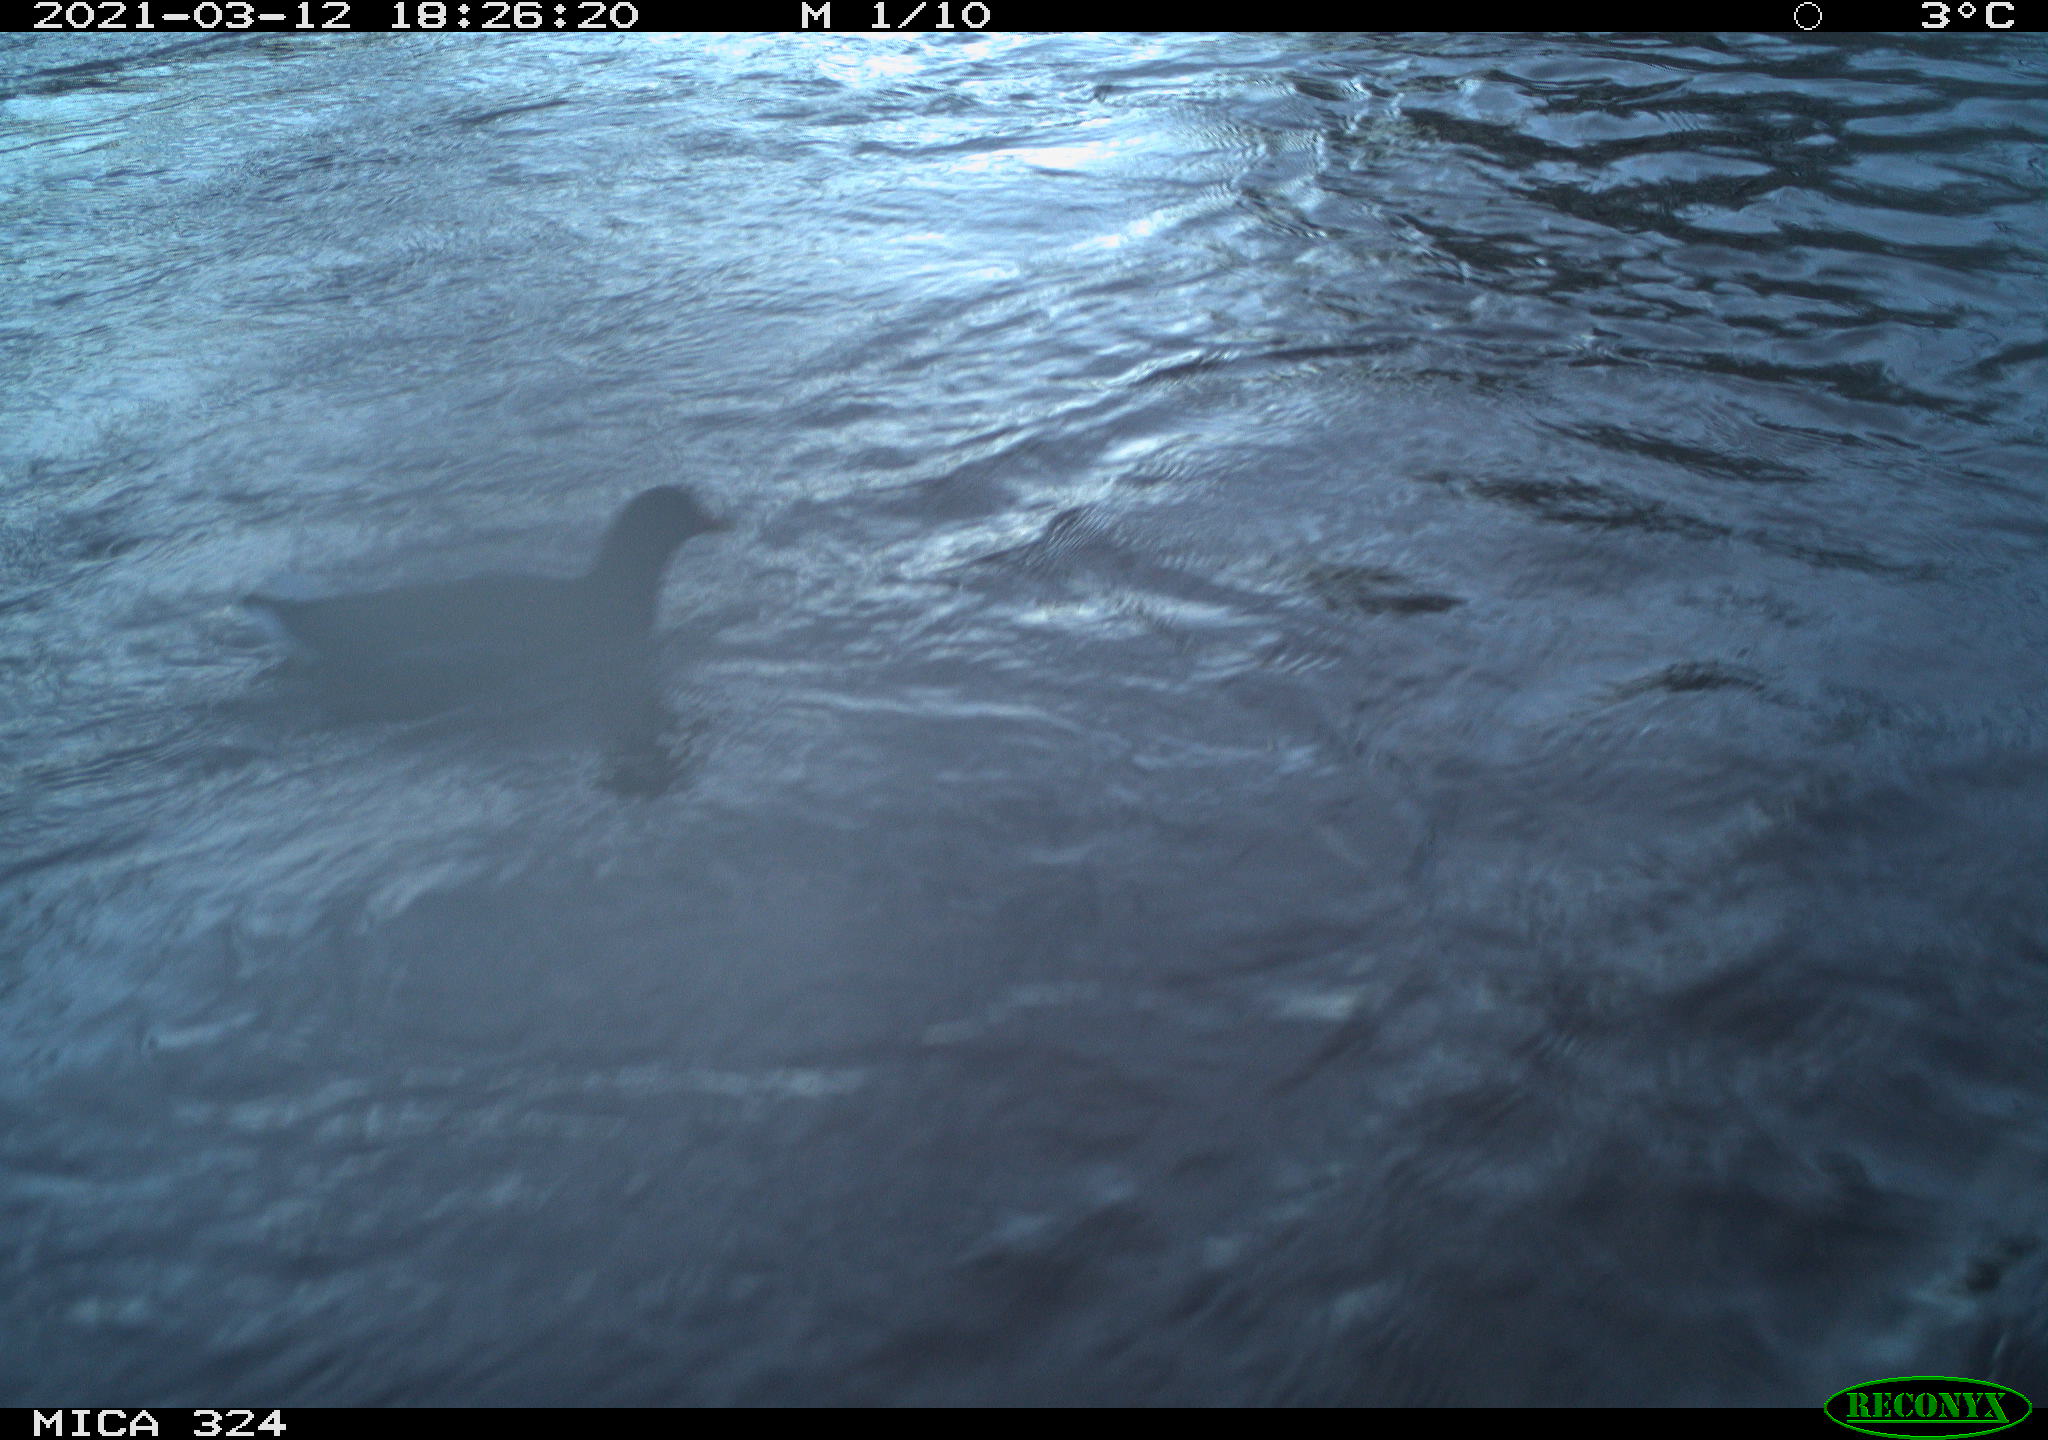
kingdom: Animalia
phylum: Chordata
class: Aves
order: Gruiformes
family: Rallidae
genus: Gallinula
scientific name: Gallinula chloropus
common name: Common moorhen
